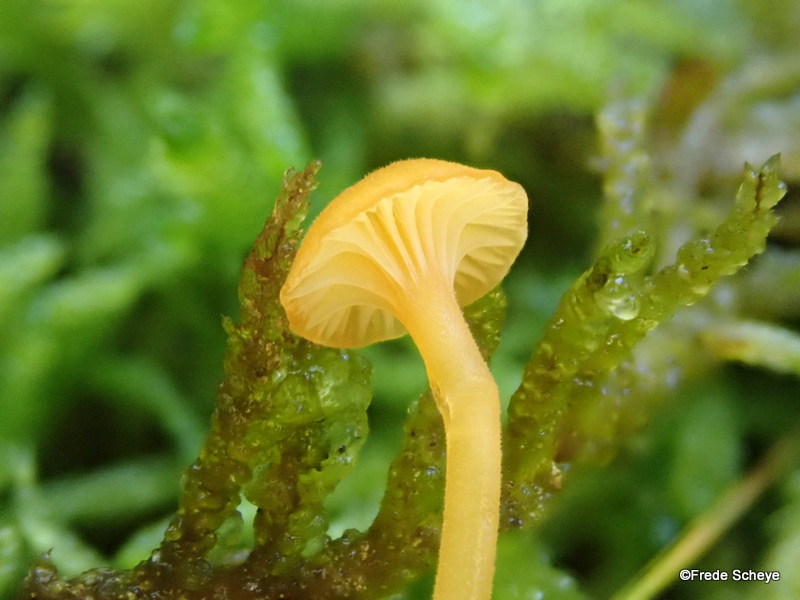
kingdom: Fungi
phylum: Basidiomycota
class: Agaricomycetes
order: Hymenochaetales
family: Rickenellaceae
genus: Rickenella
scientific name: Rickenella fibula
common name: orange mosnavlehat
